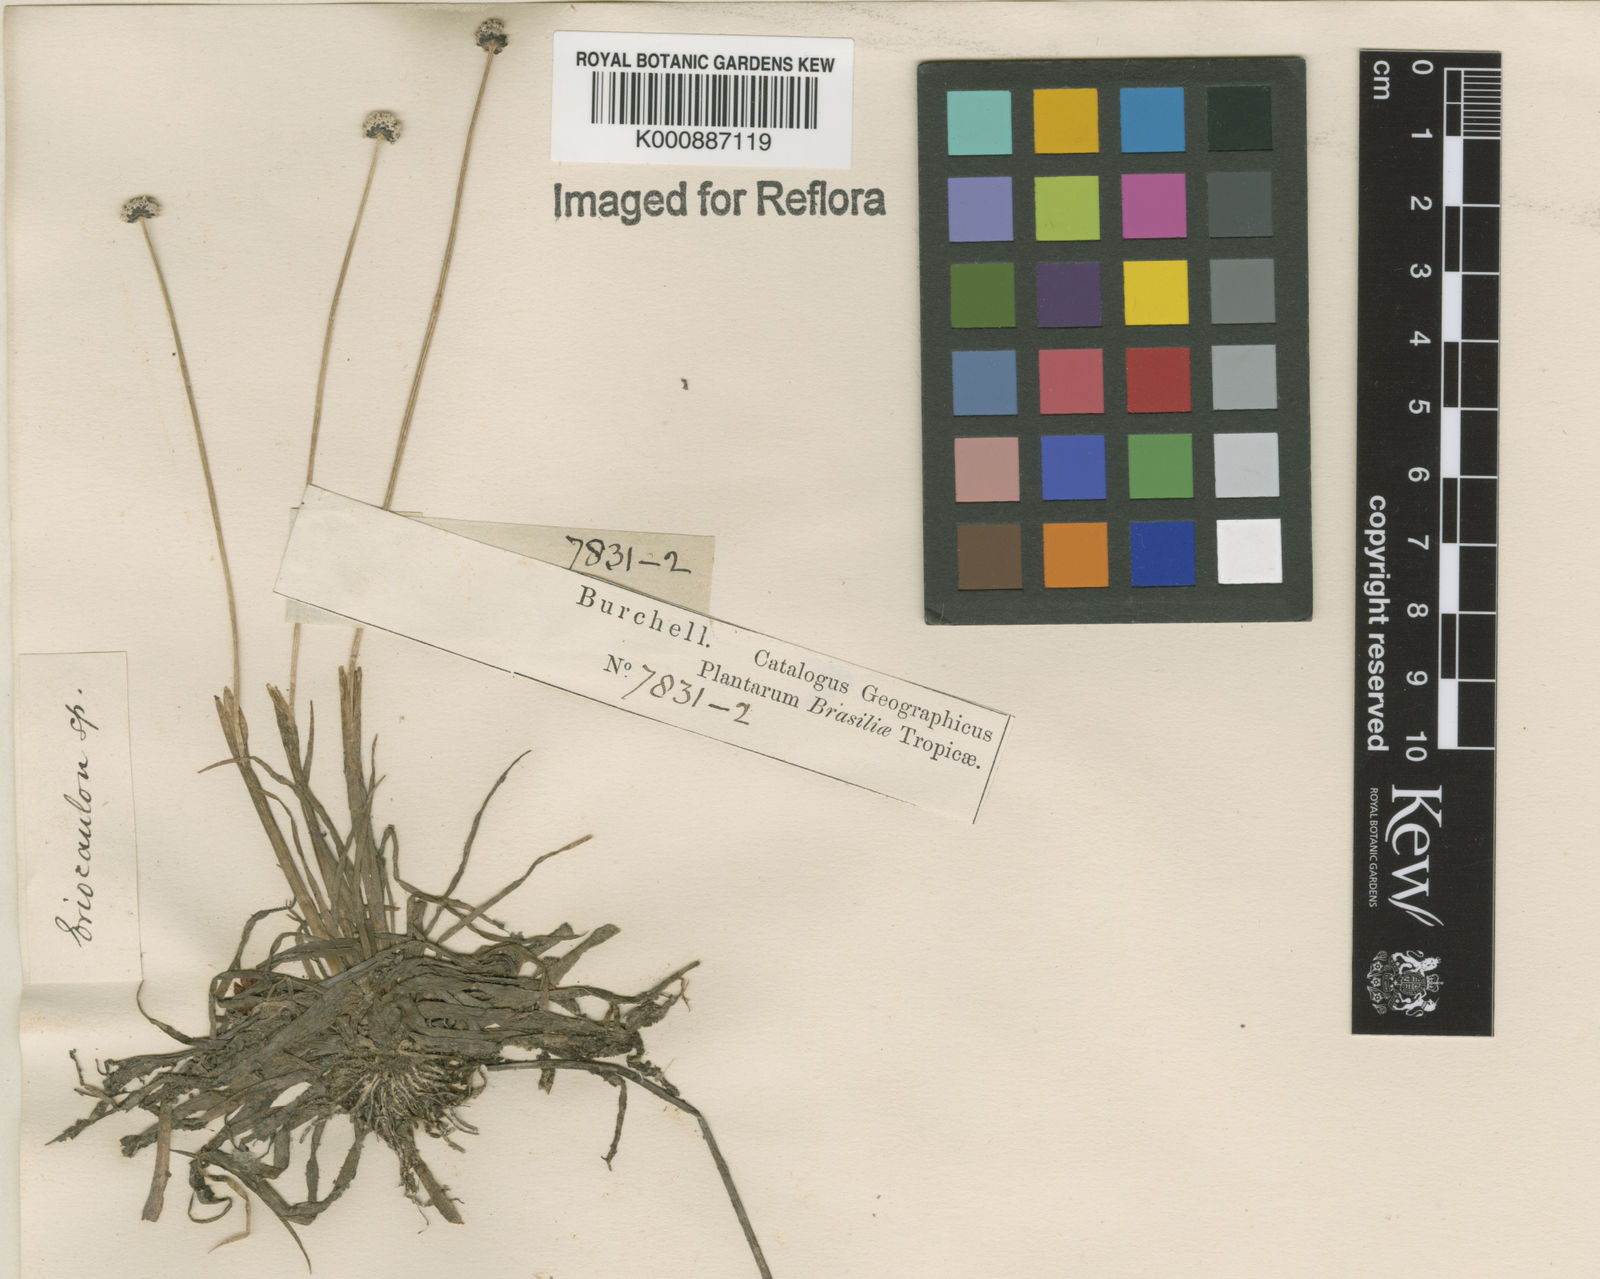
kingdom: Plantae
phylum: Tracheophyta
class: Liliopsida
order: Poales
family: Eriocaulaceae
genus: Eriocaulon
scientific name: Eriocaulon
